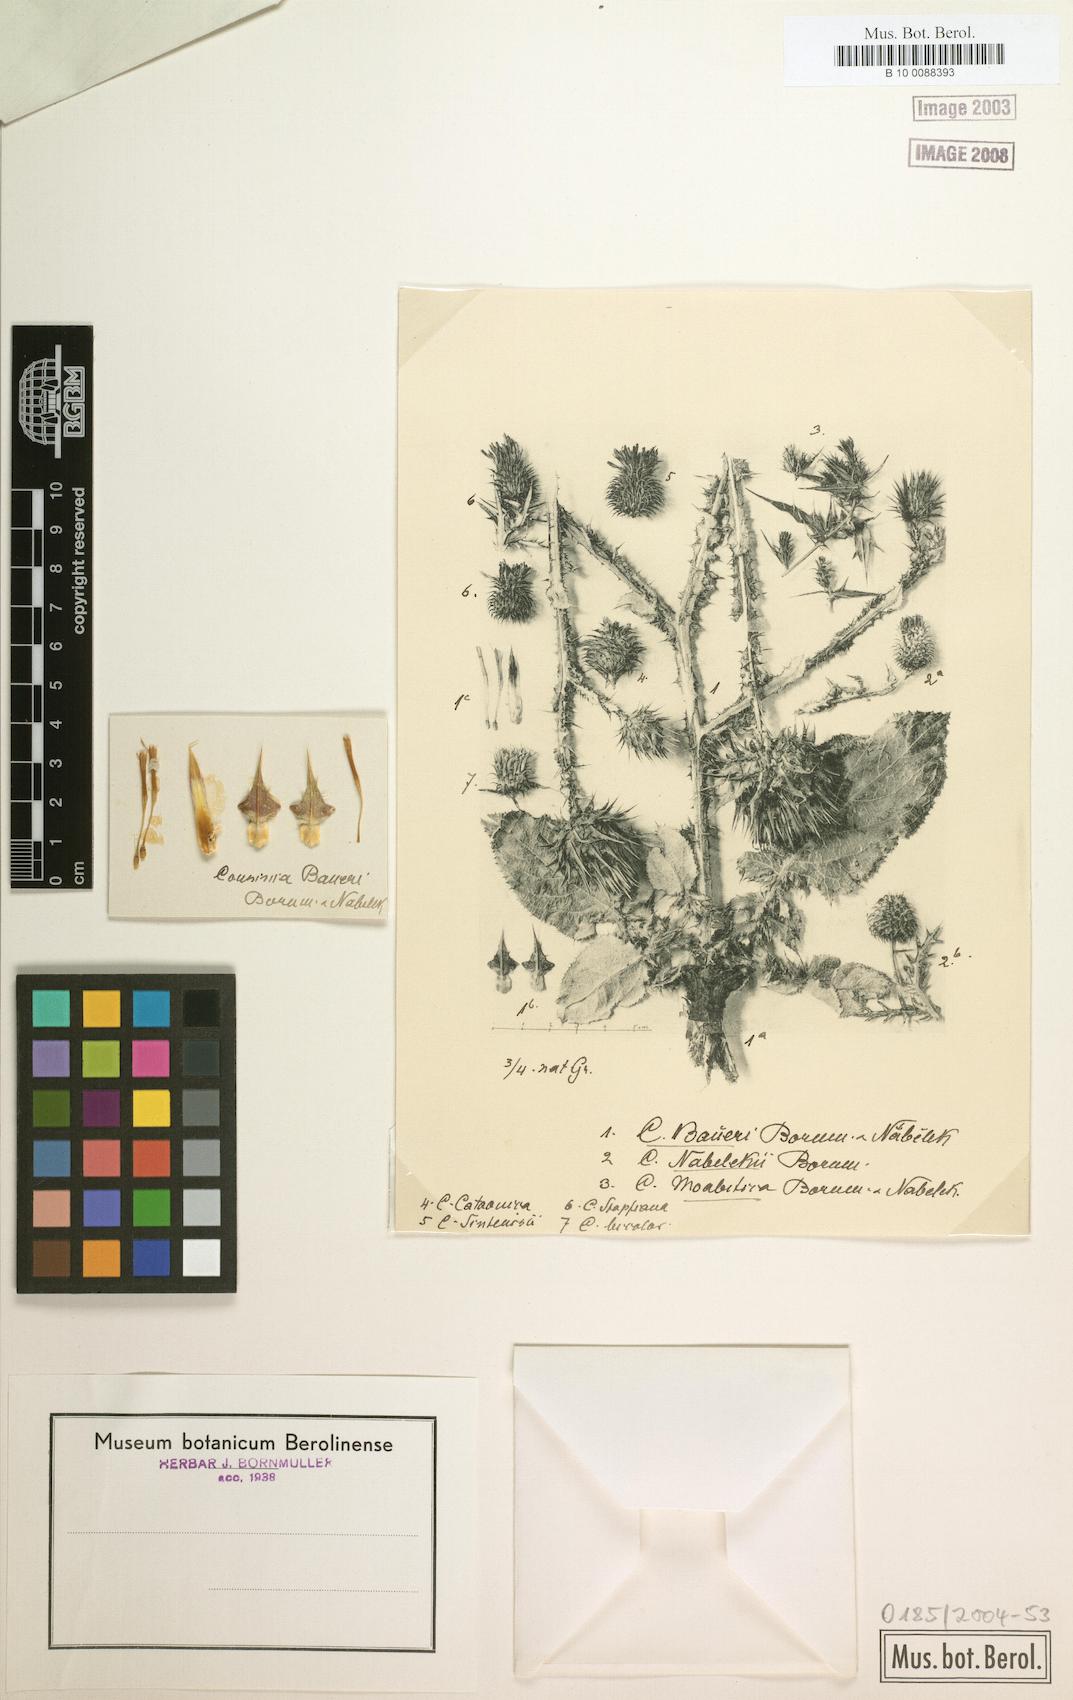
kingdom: Plantae
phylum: Tracheophyta
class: Magnoliopsida
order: Asterales
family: Asteraceae
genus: Cousinia
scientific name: Cousinia odontolepis
